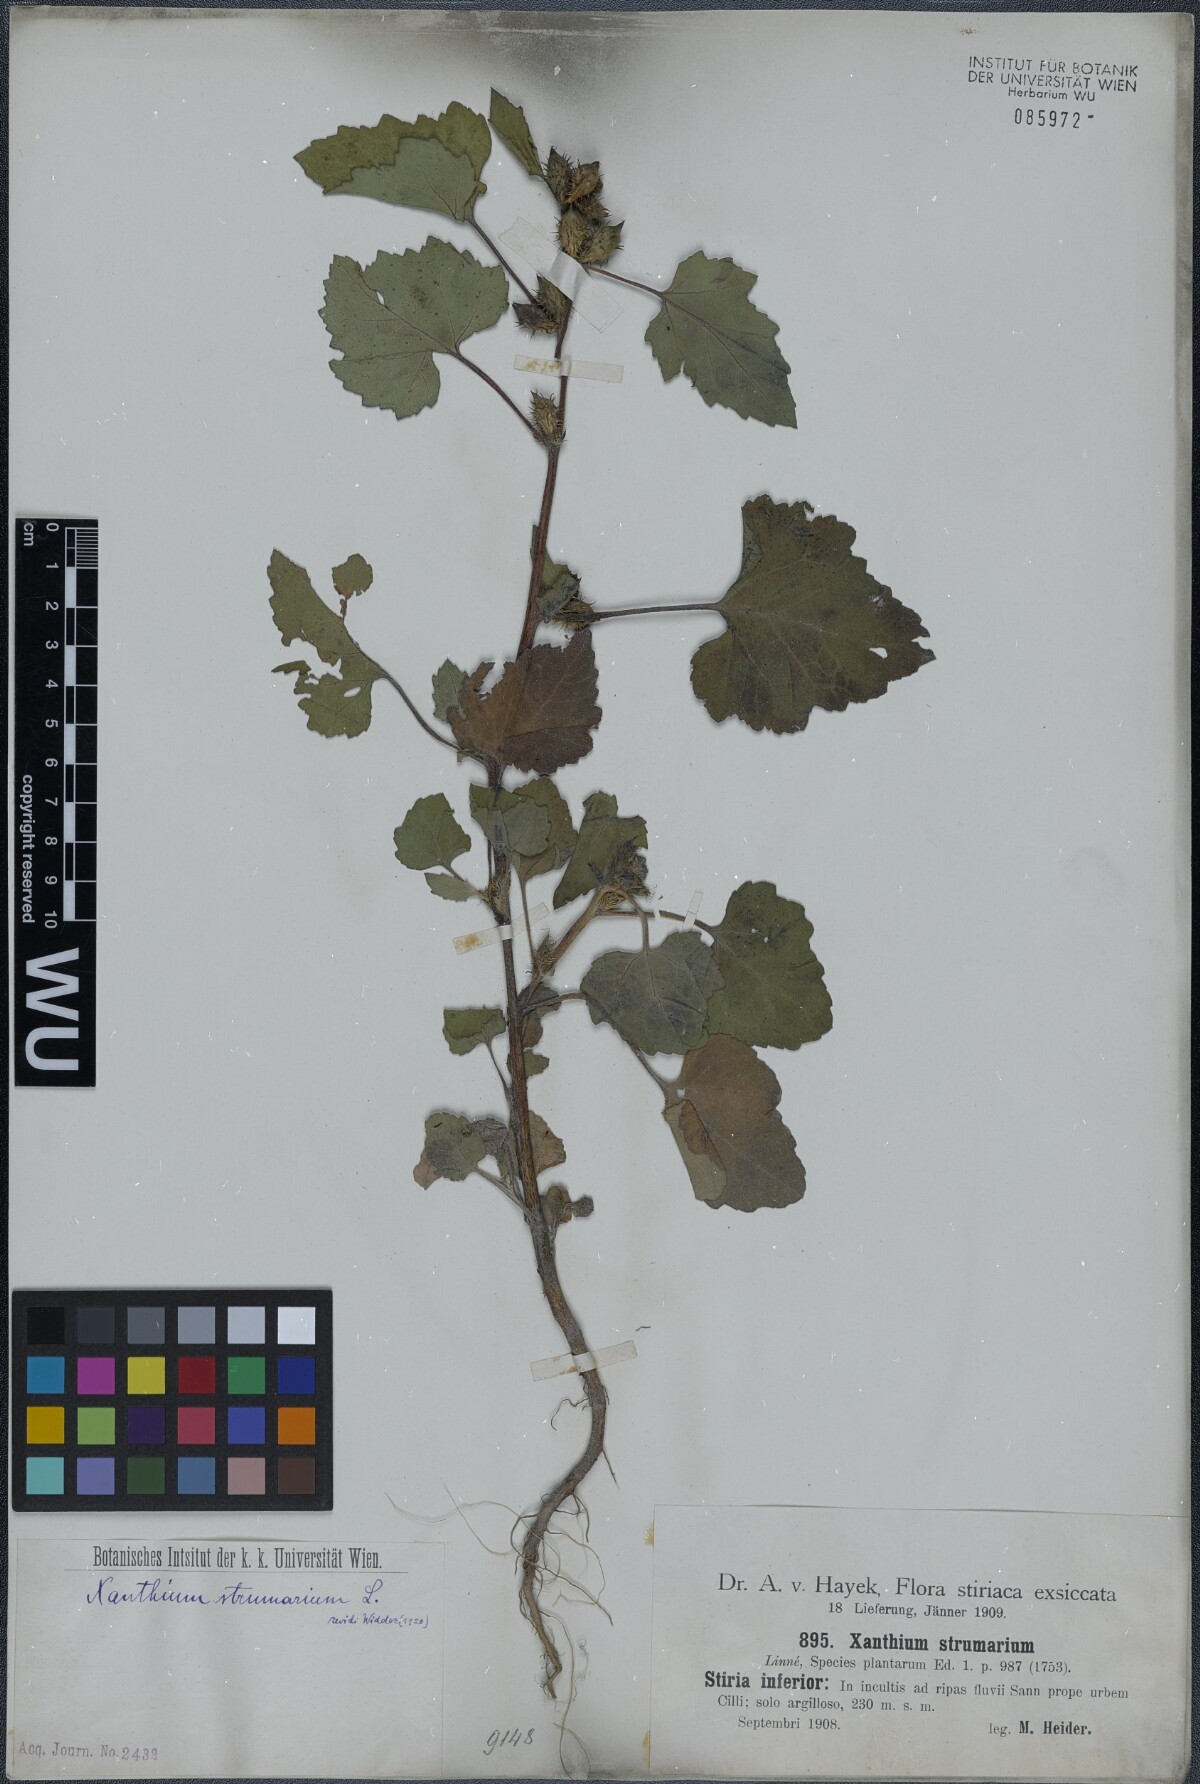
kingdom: Plantae
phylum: Tracheophyta
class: Magnoliopsida
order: Asterales
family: Asteraceae
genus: Xanthium
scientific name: Xanthium strumarium
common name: Rough cocklebur
